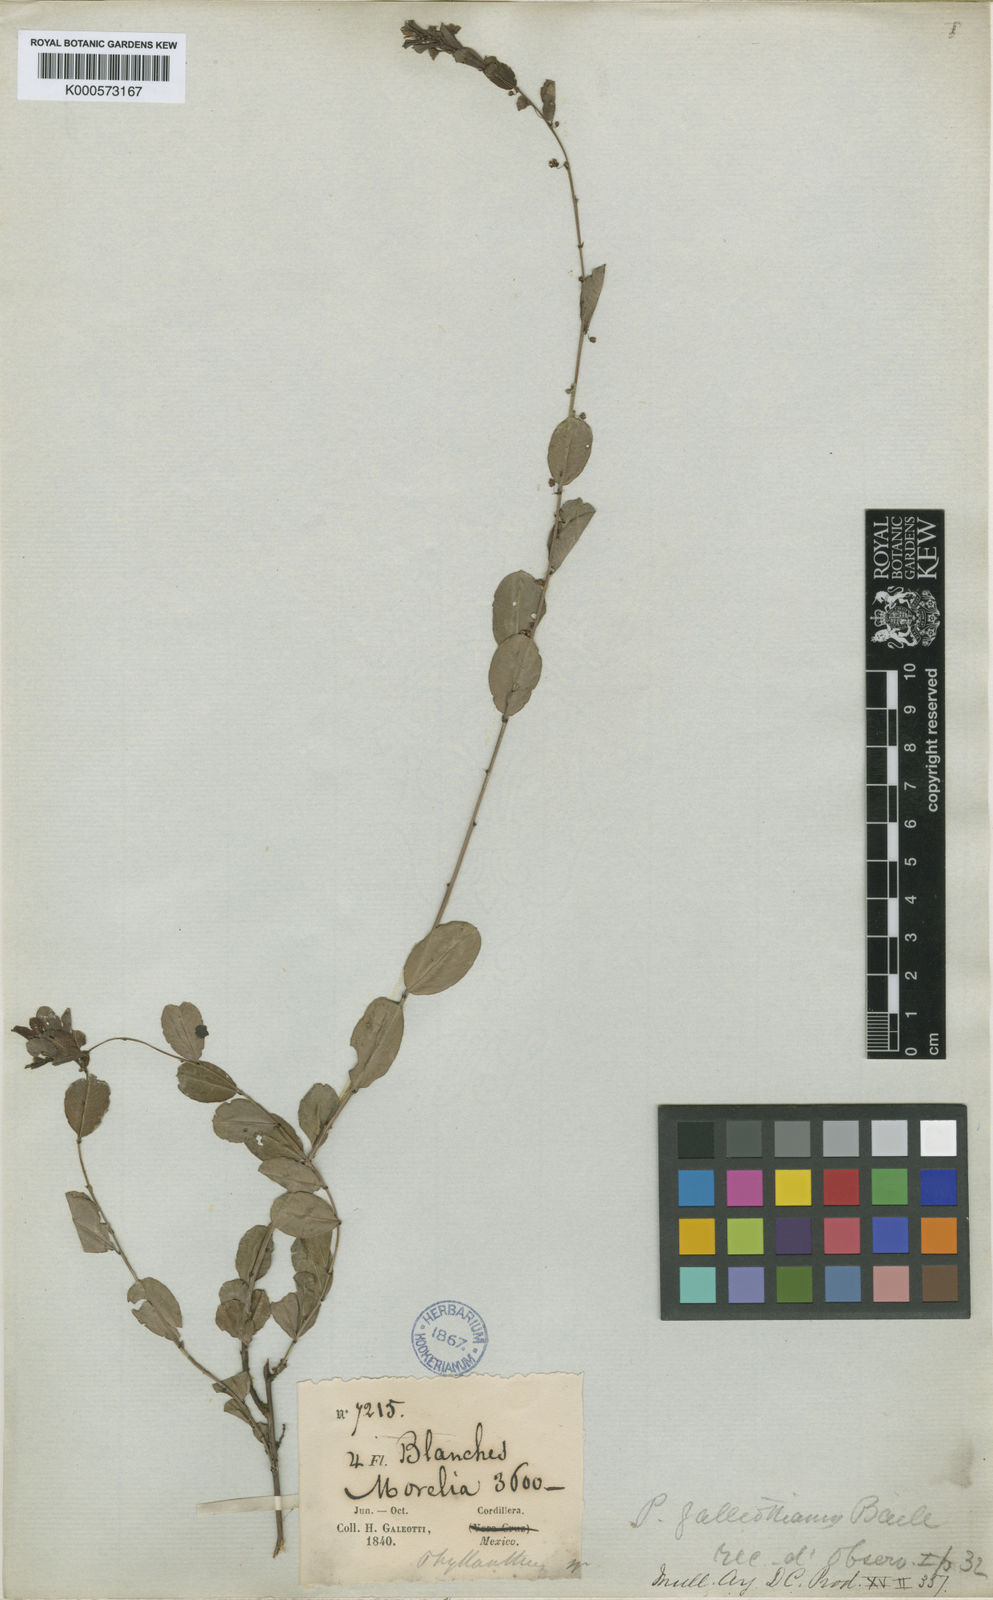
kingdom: Plantae
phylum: Tracheophyta
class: Magnoliopsida
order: Malpighiales
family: Phyllanthaceae
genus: Phyllanthus
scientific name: Phyllanthus galeottianus
